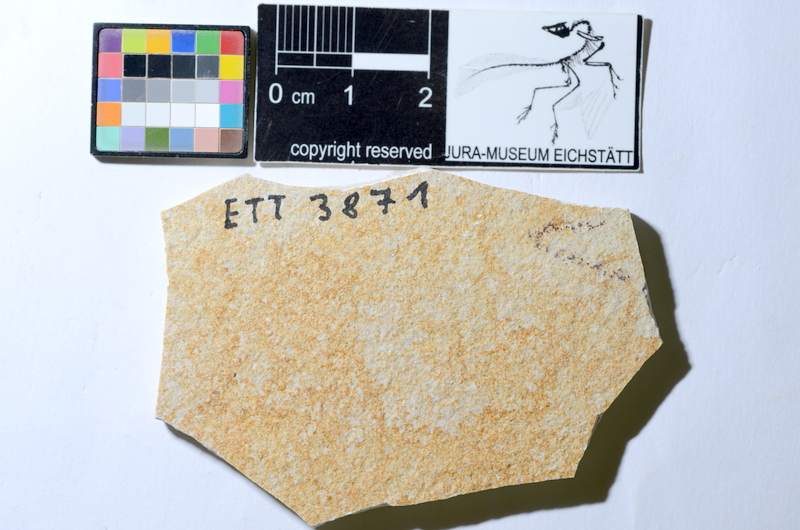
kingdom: Animalia
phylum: Chordata
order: Salmoniformes
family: Orthogonikleithridae
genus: Orthogonikleithrus
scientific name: Orthogonikleithrus hoelli
